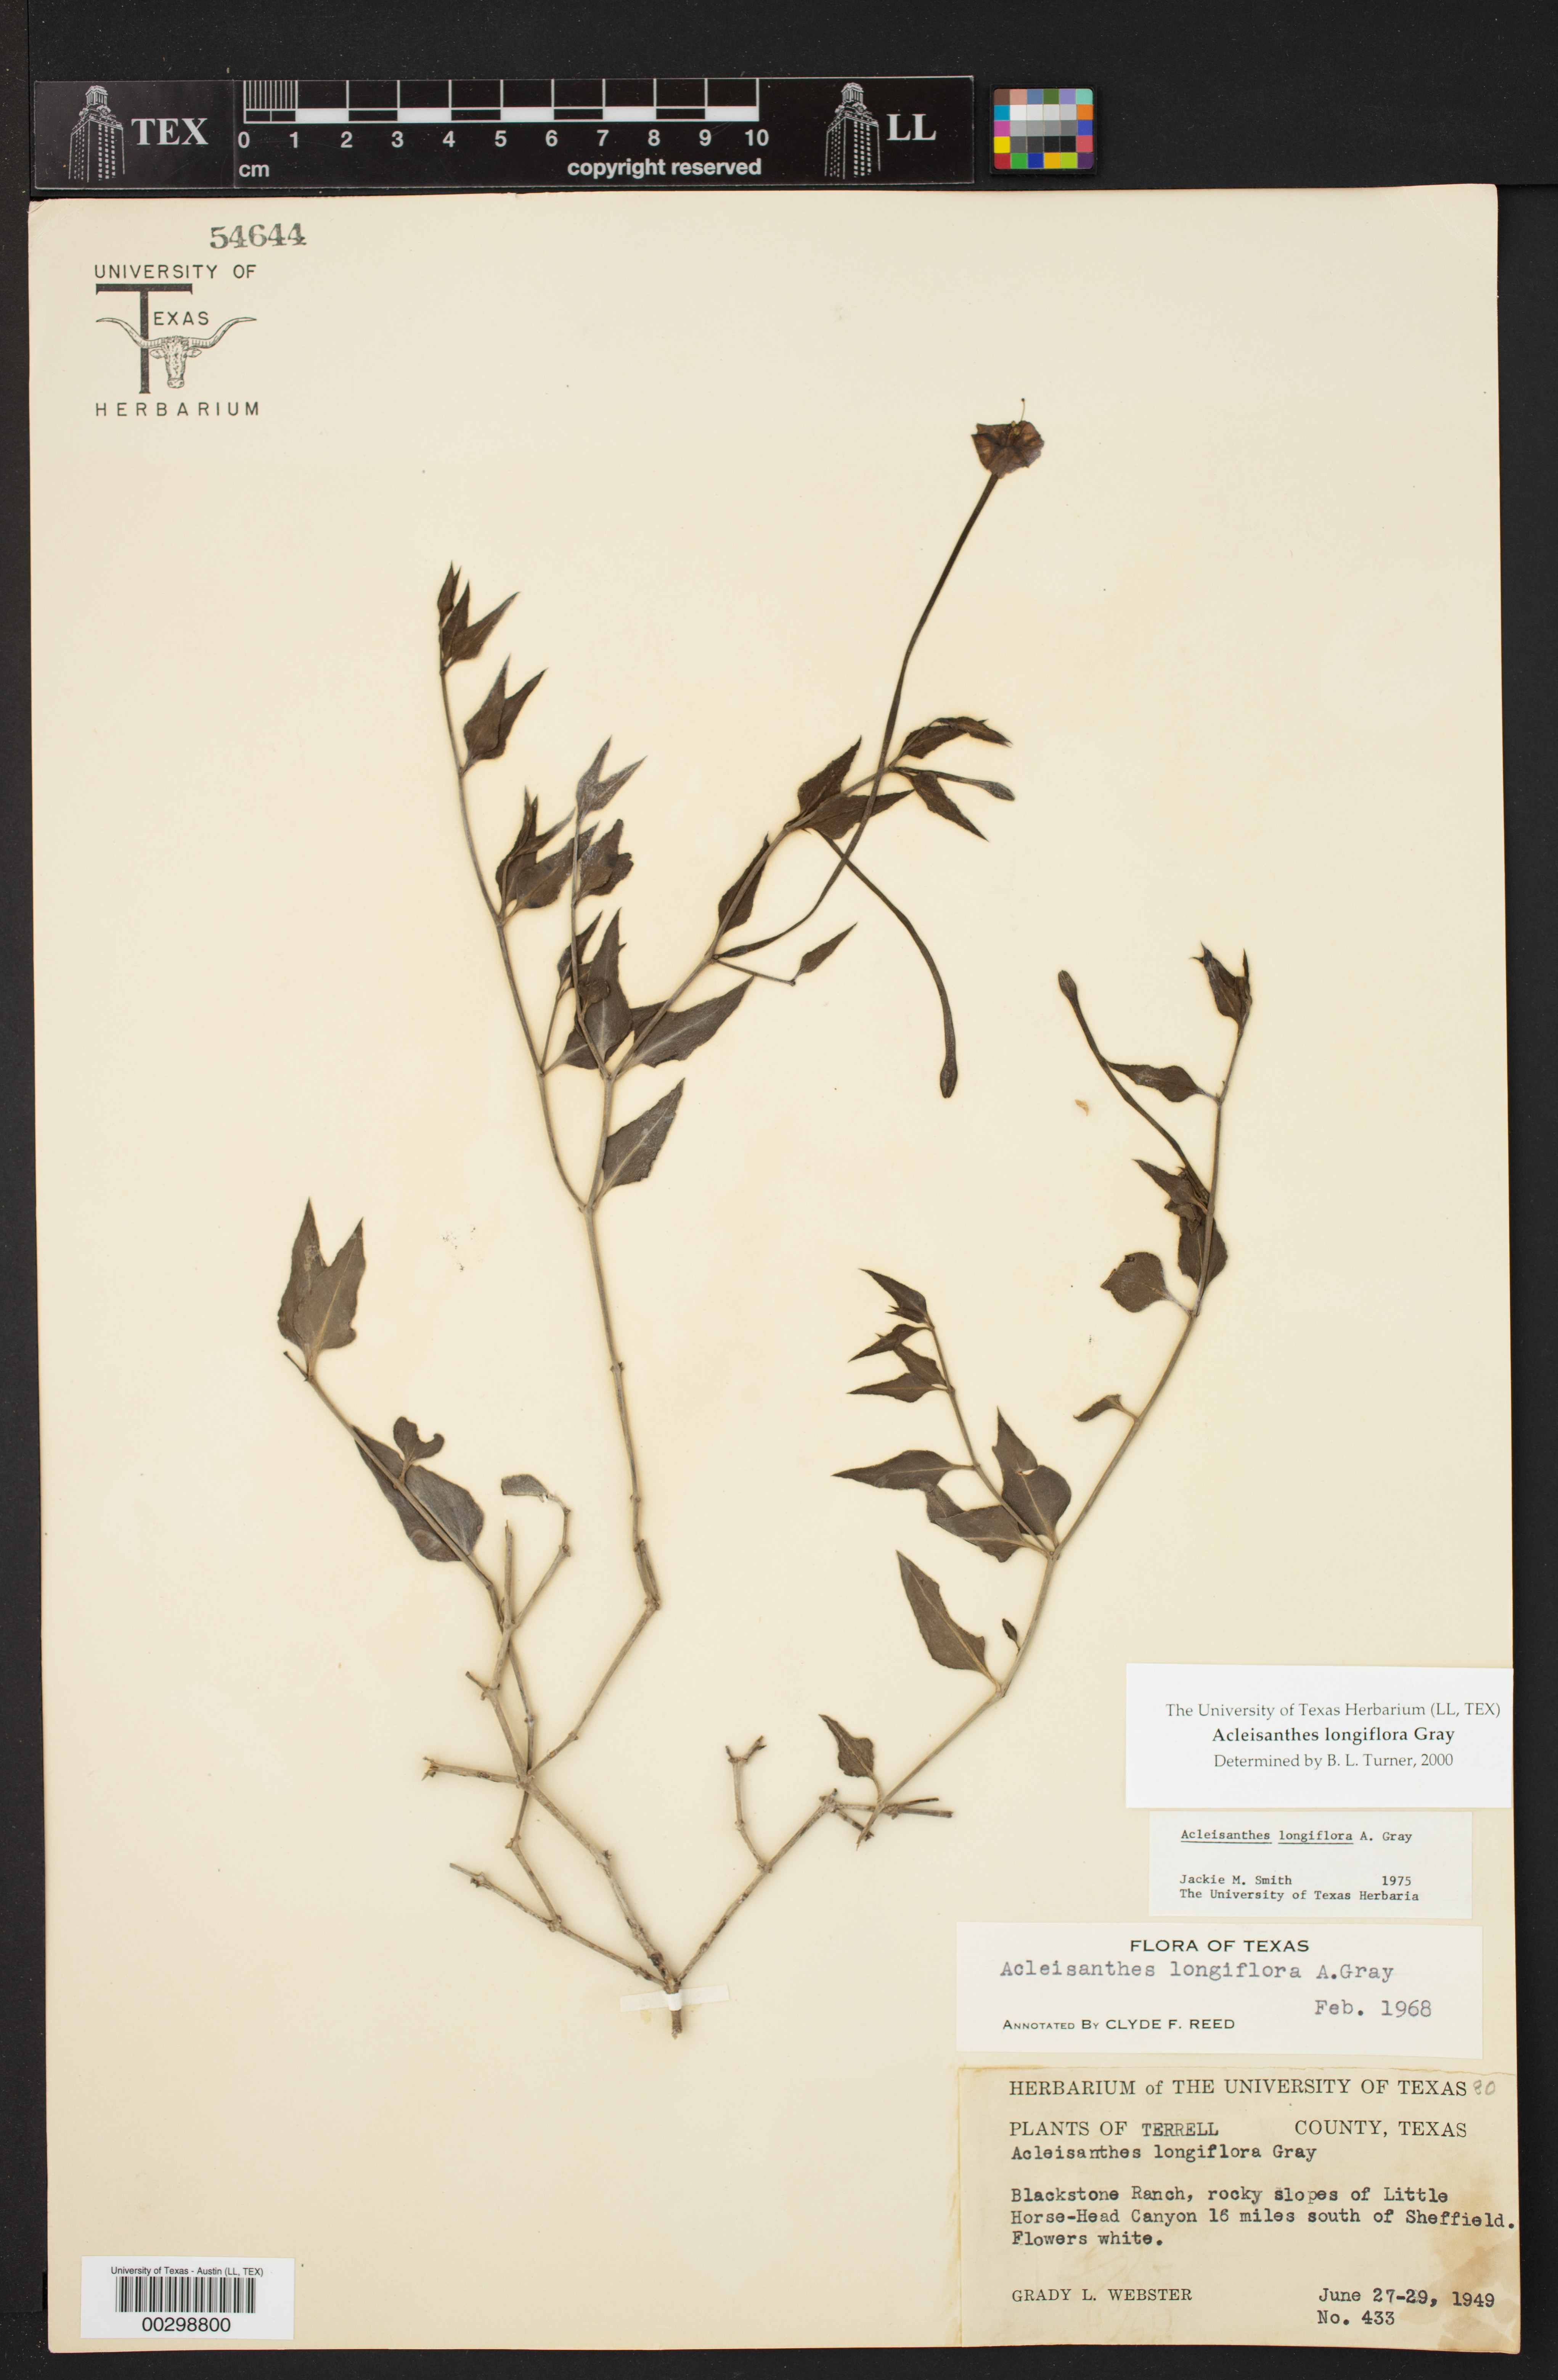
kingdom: Plantae
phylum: Tracheophyta
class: Magnoliopsida
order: Caryophyllales
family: Nyctaginaceae
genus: Acleisanthes
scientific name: Acleisanthes longiflora
